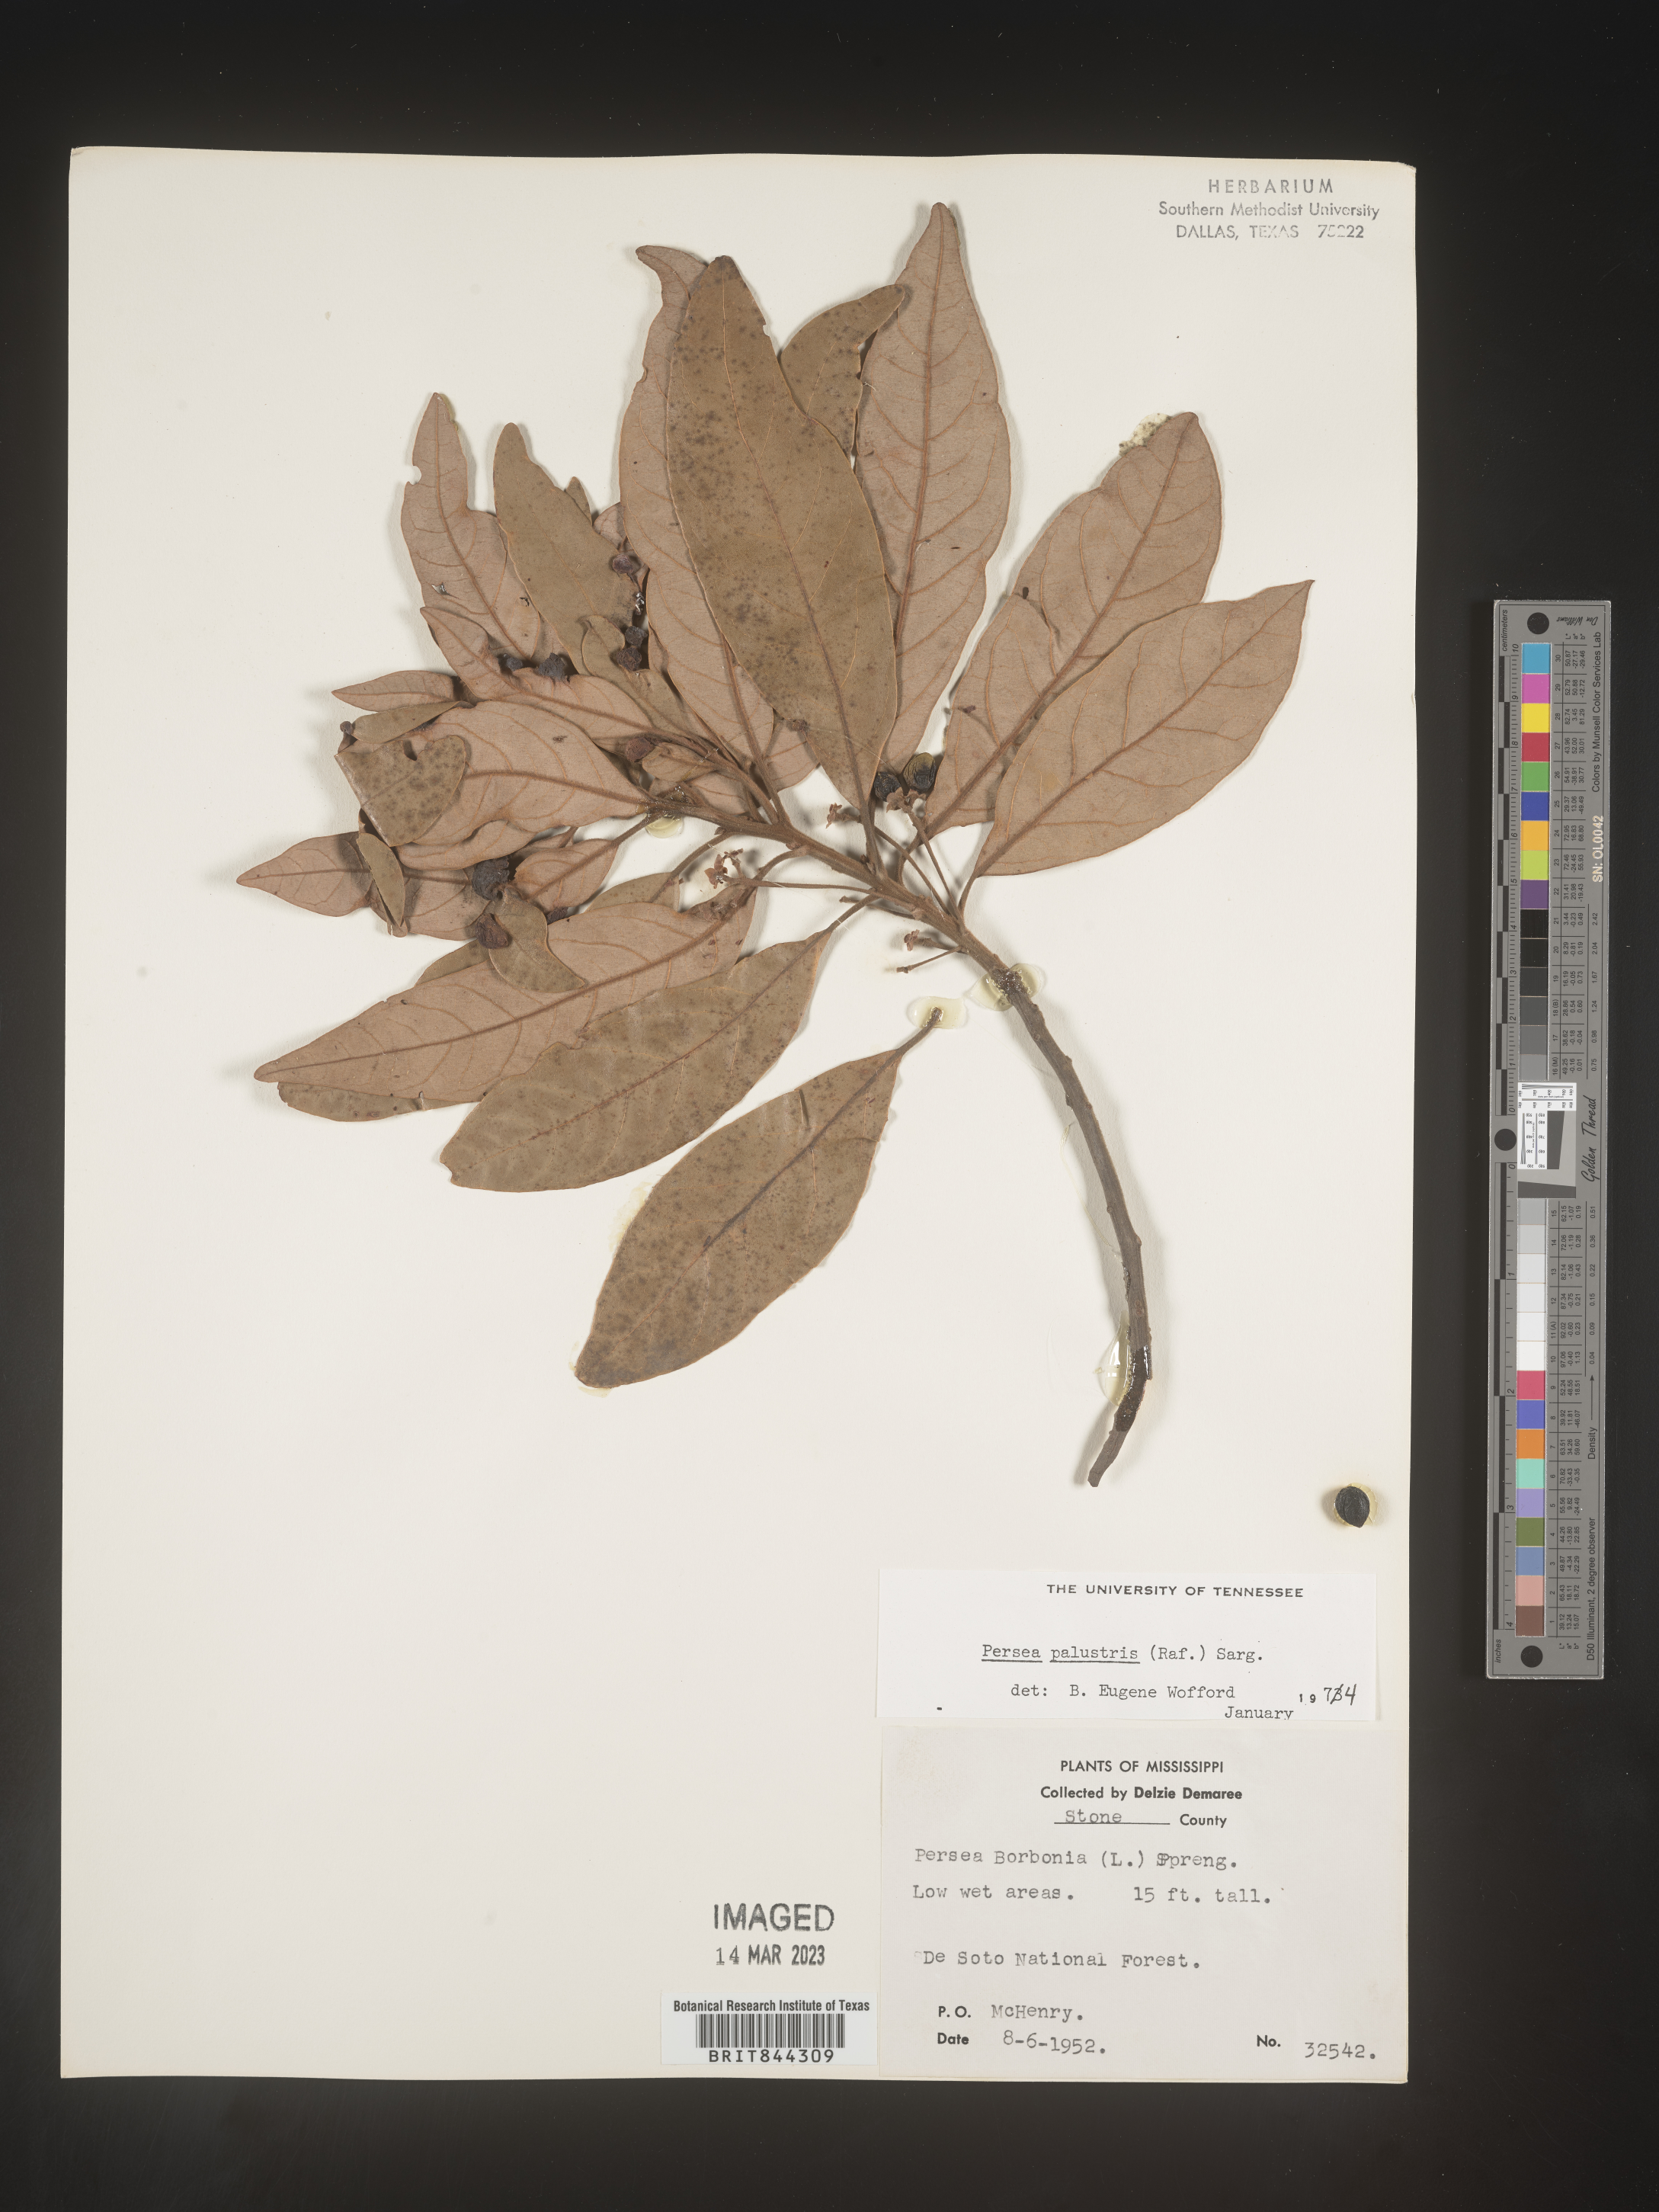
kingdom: Plantae
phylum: Tracheophyta
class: Magnoliopsida
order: Laurales
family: Lauraceae
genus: Persea
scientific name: Persea palustris
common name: Swampbay
